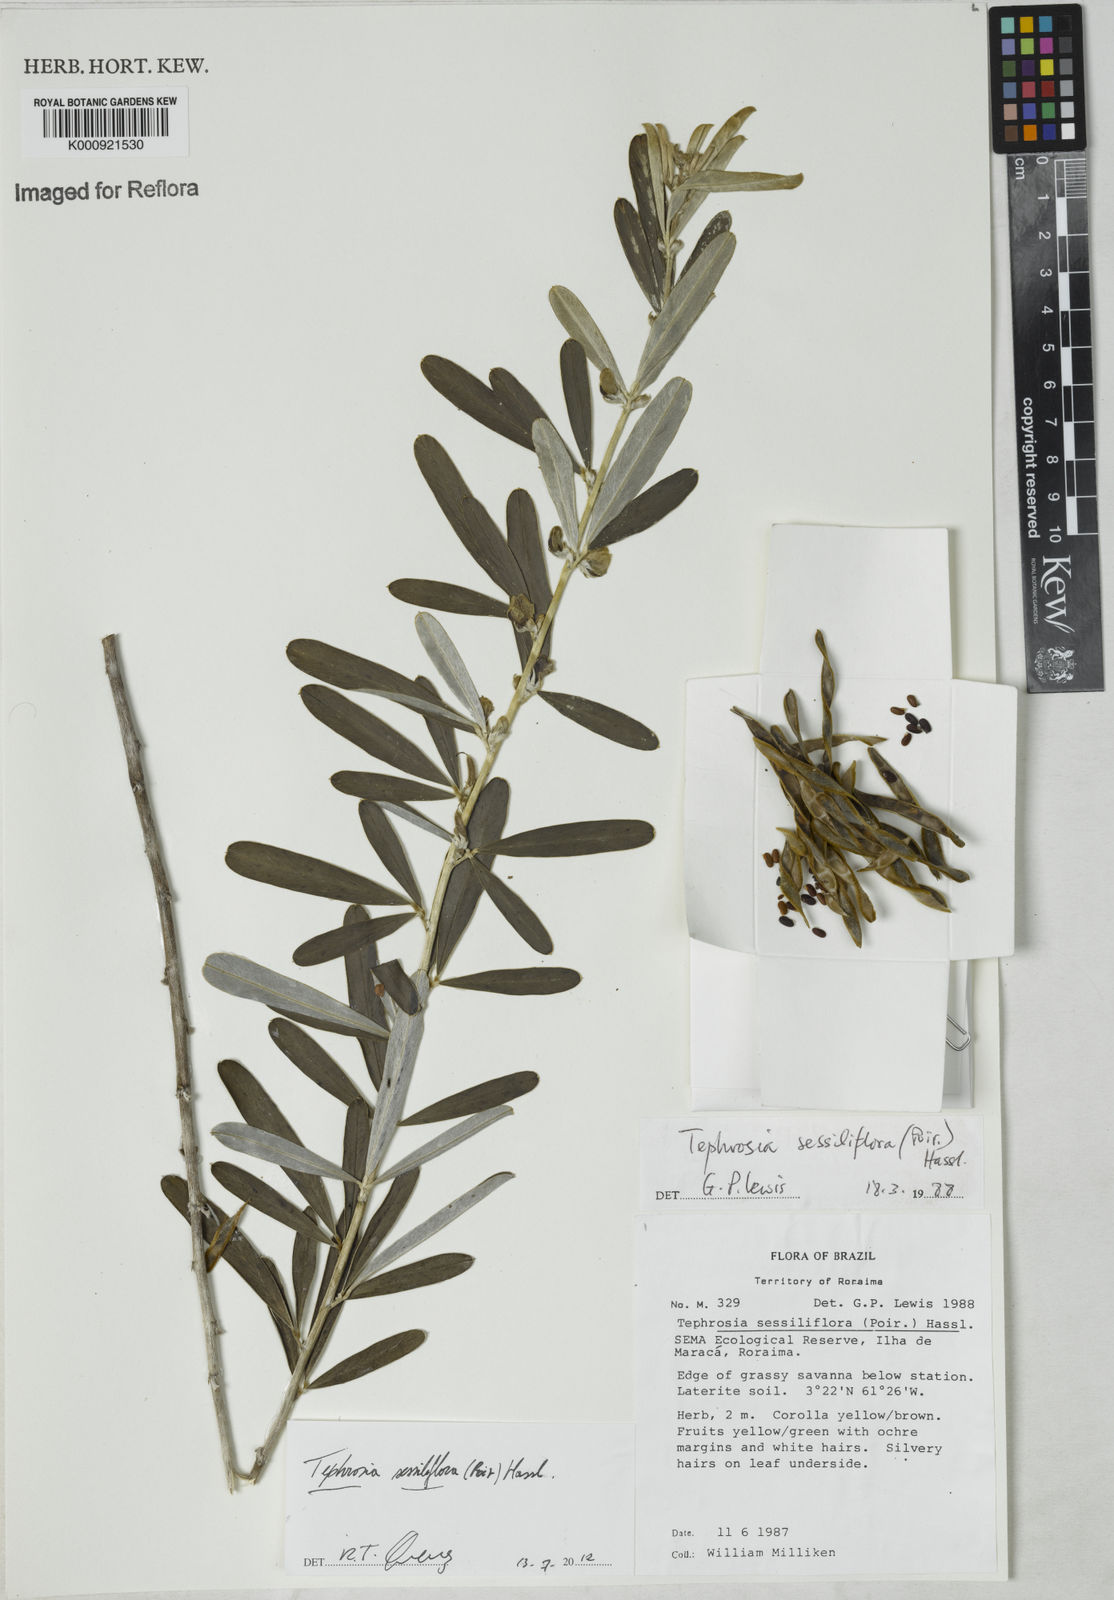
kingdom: Plantae
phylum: Tracheophyta
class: Magnoliopsida
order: Fabales
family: Fabaceae
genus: Tephrosia
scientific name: Tephrosia sessiliflora
